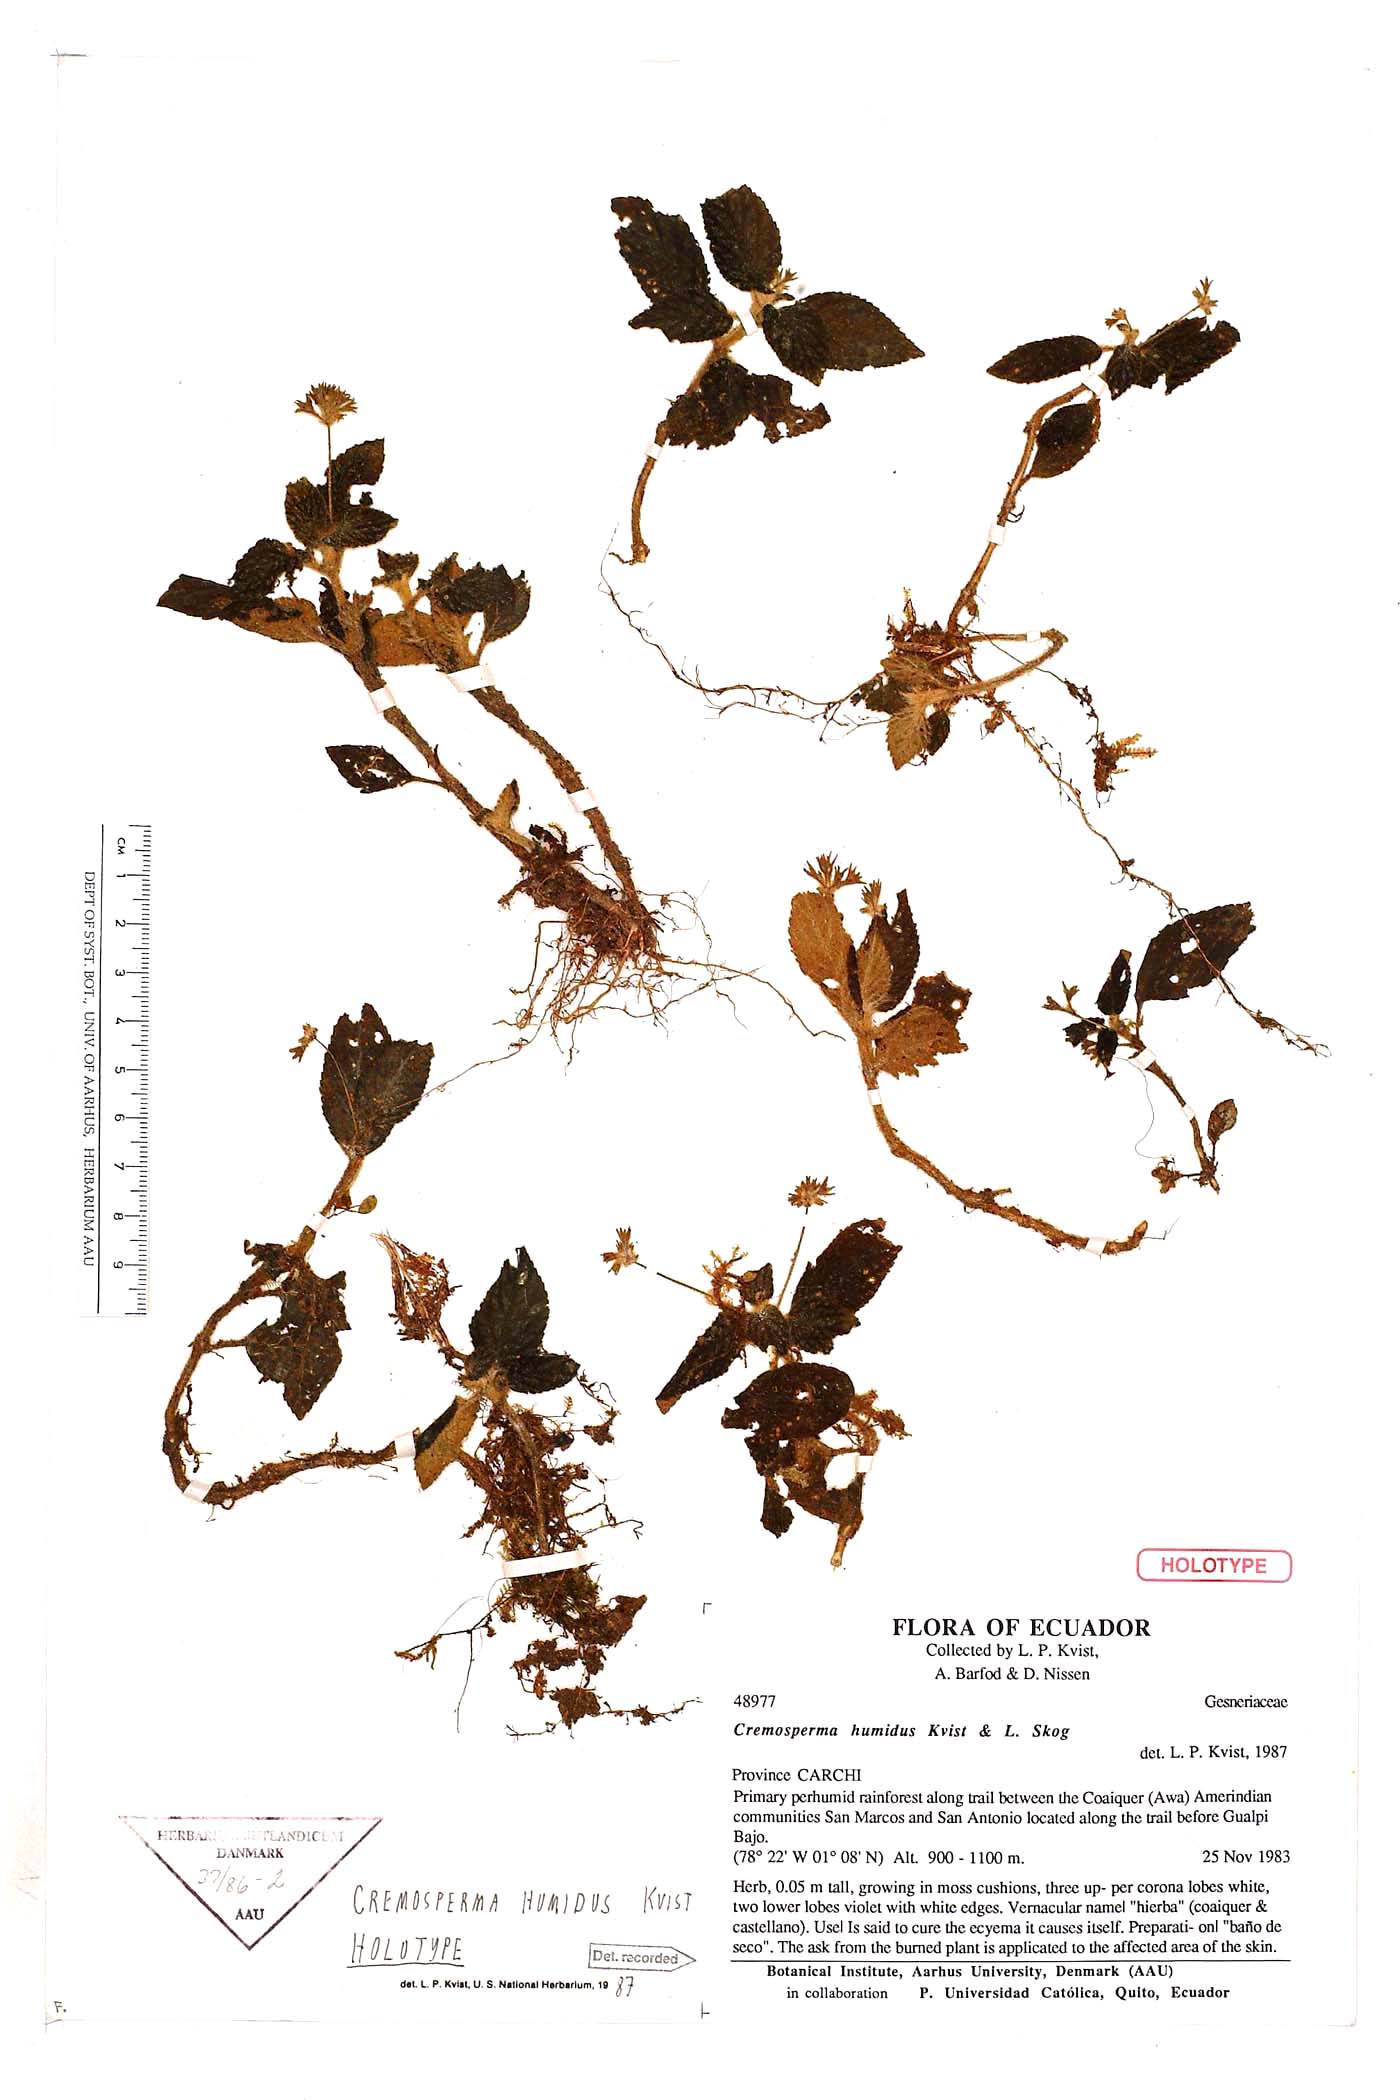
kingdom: Plantae
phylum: Tracheophyta
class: Magnoliopsida
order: Lamiales
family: Gesneriaceae
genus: Cremosperma
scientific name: Cremosperma humidum
